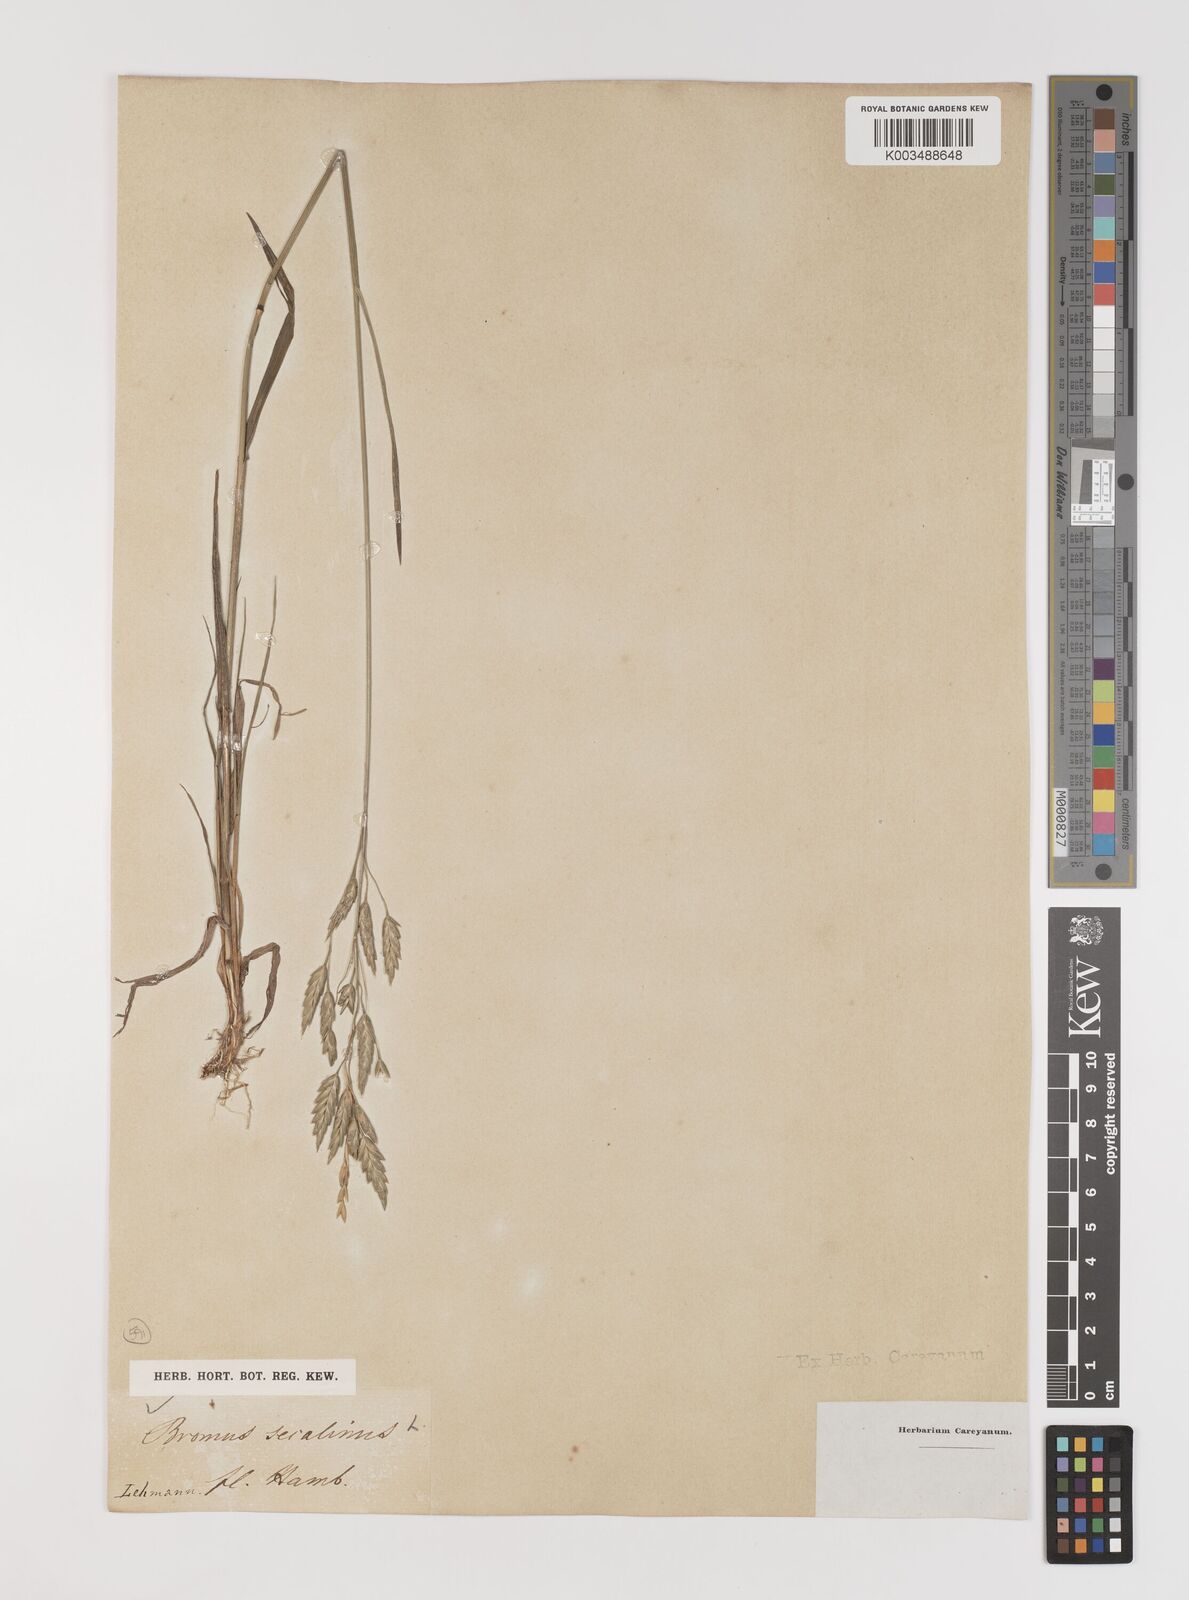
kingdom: Plantae
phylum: Tracheophyta
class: Liliopsida
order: Poales
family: Poaceae
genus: Bromus
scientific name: Bromus secalinus
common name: Rye brome
